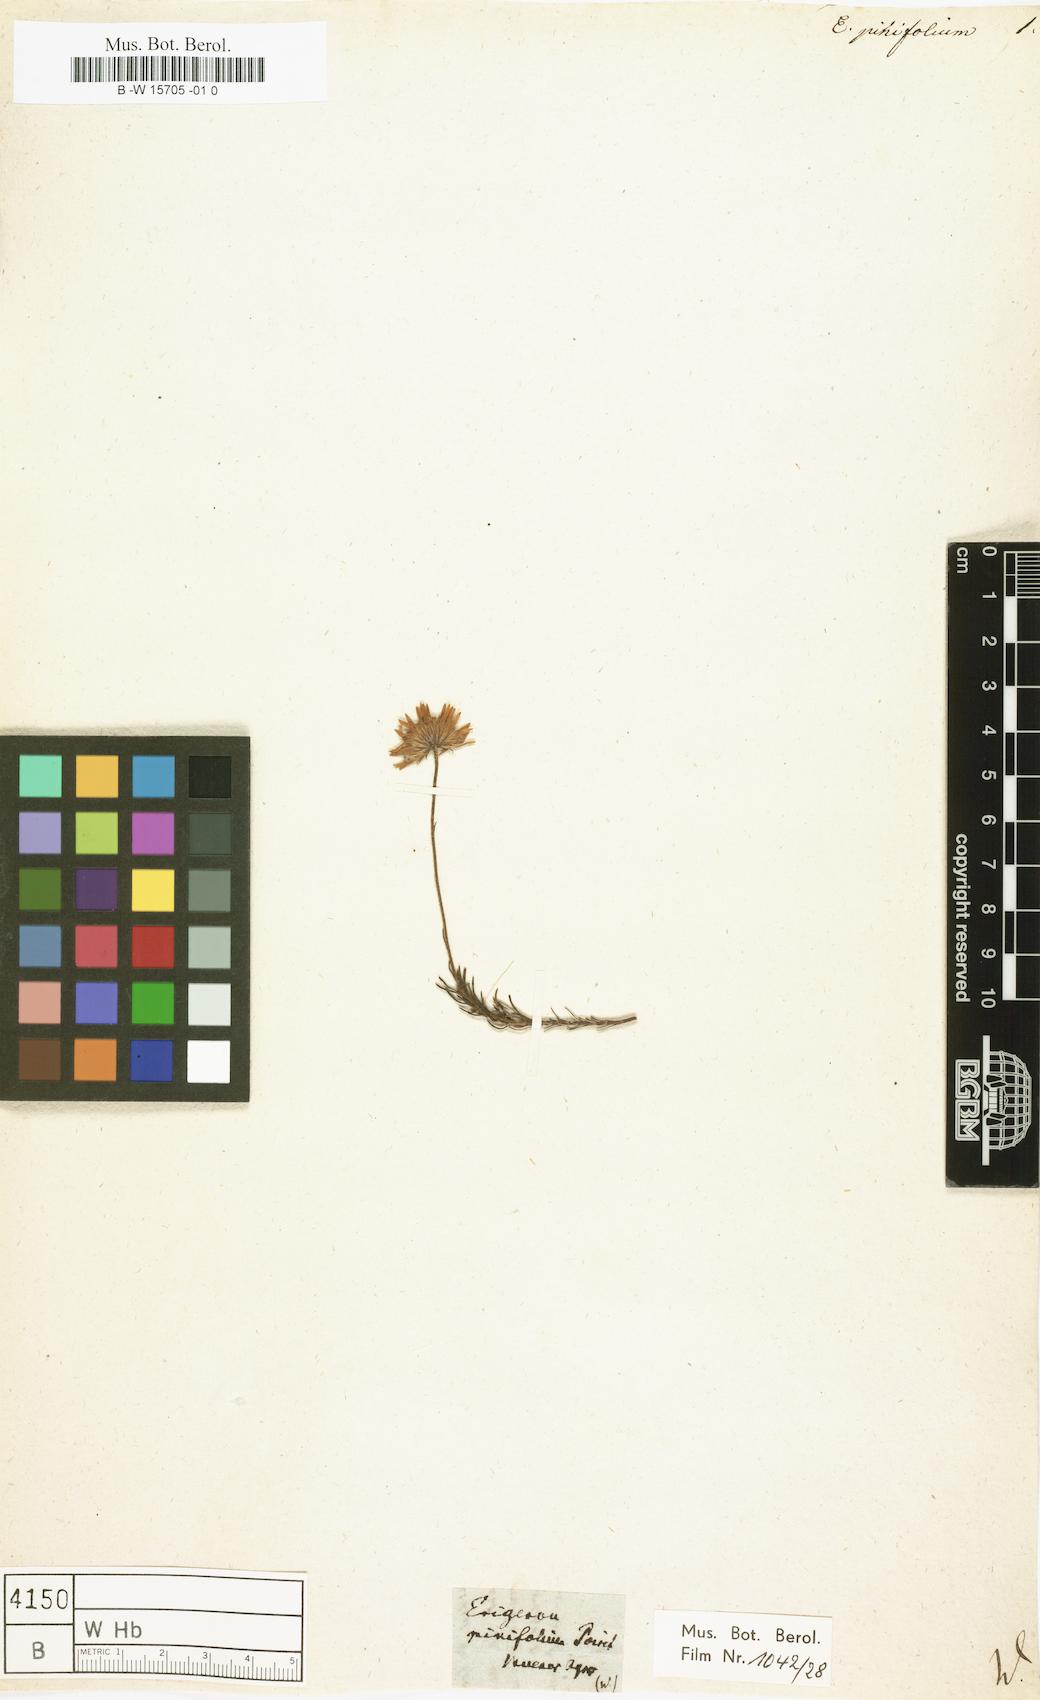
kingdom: Plantae
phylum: Tracheophyta
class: Magnoliopsida
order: Asterales
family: Asteraceae
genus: Neja
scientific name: Neja pinifolia
